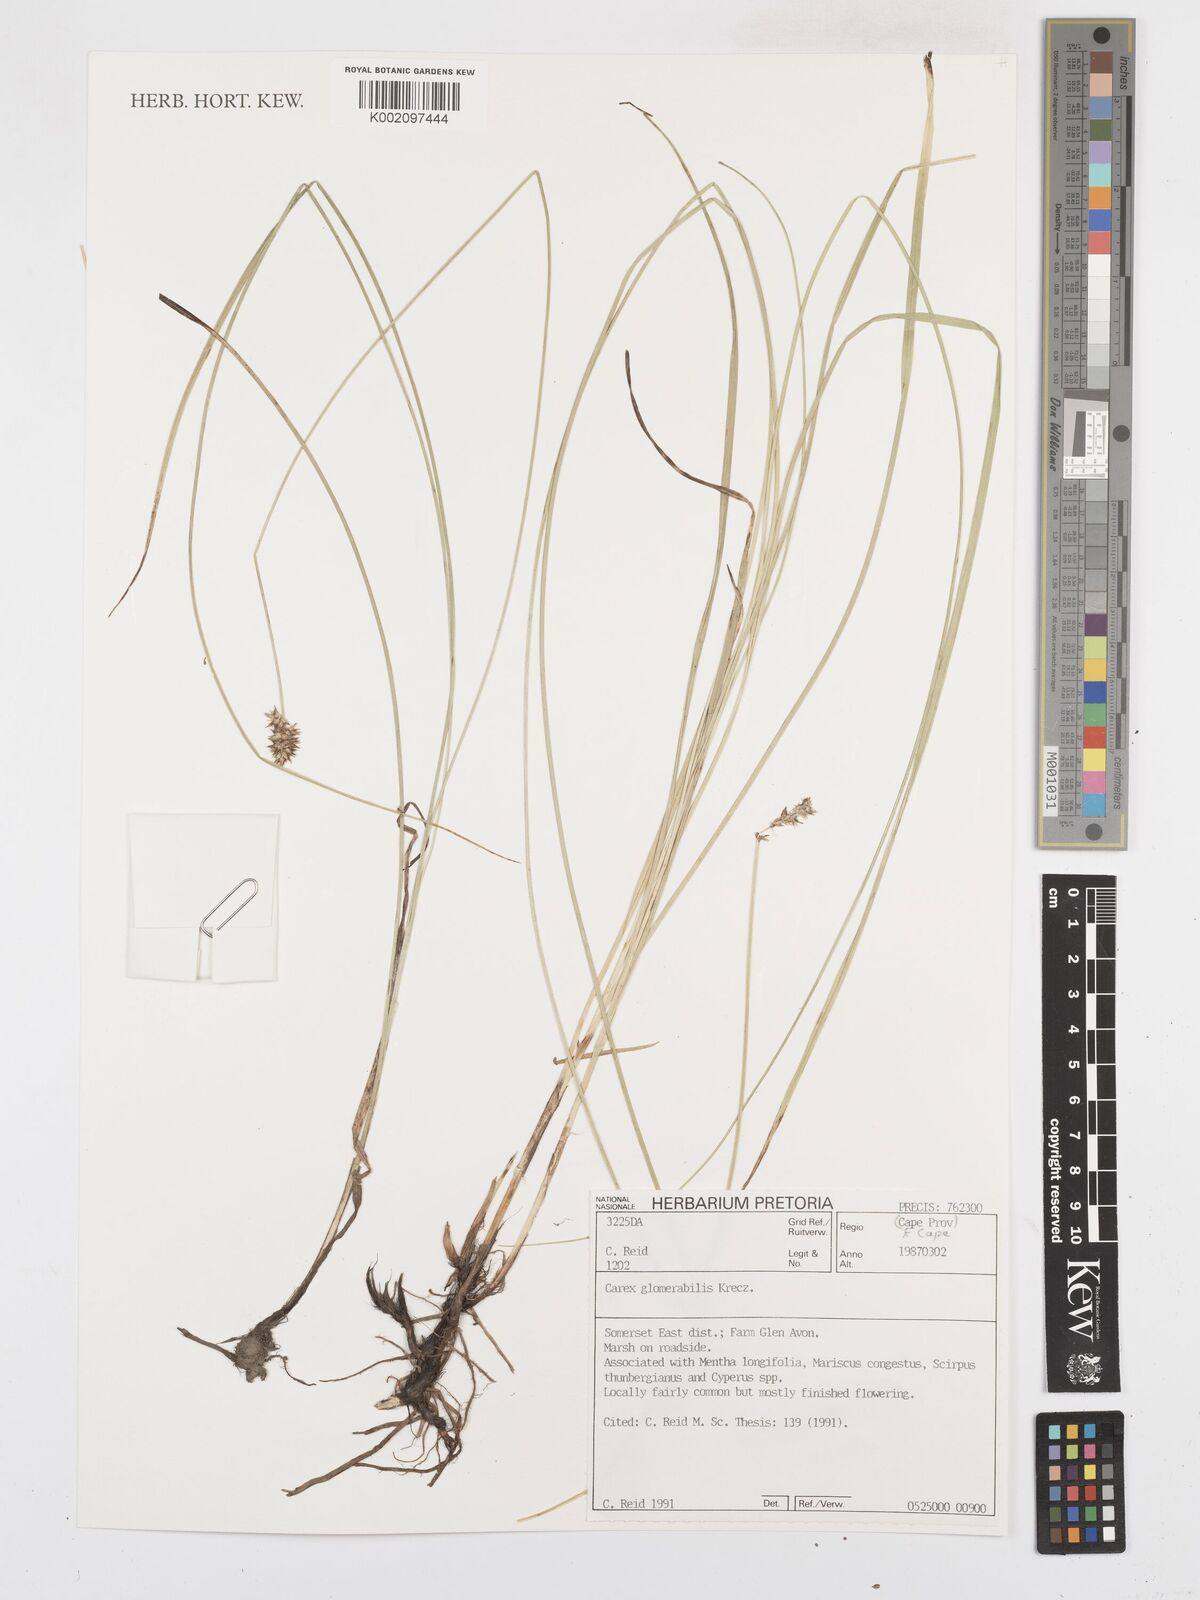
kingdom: Plantae
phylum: Tracheophyta
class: Liliopsida
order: Poales
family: Cyperaceae
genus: Carex
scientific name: Carex glomerata
